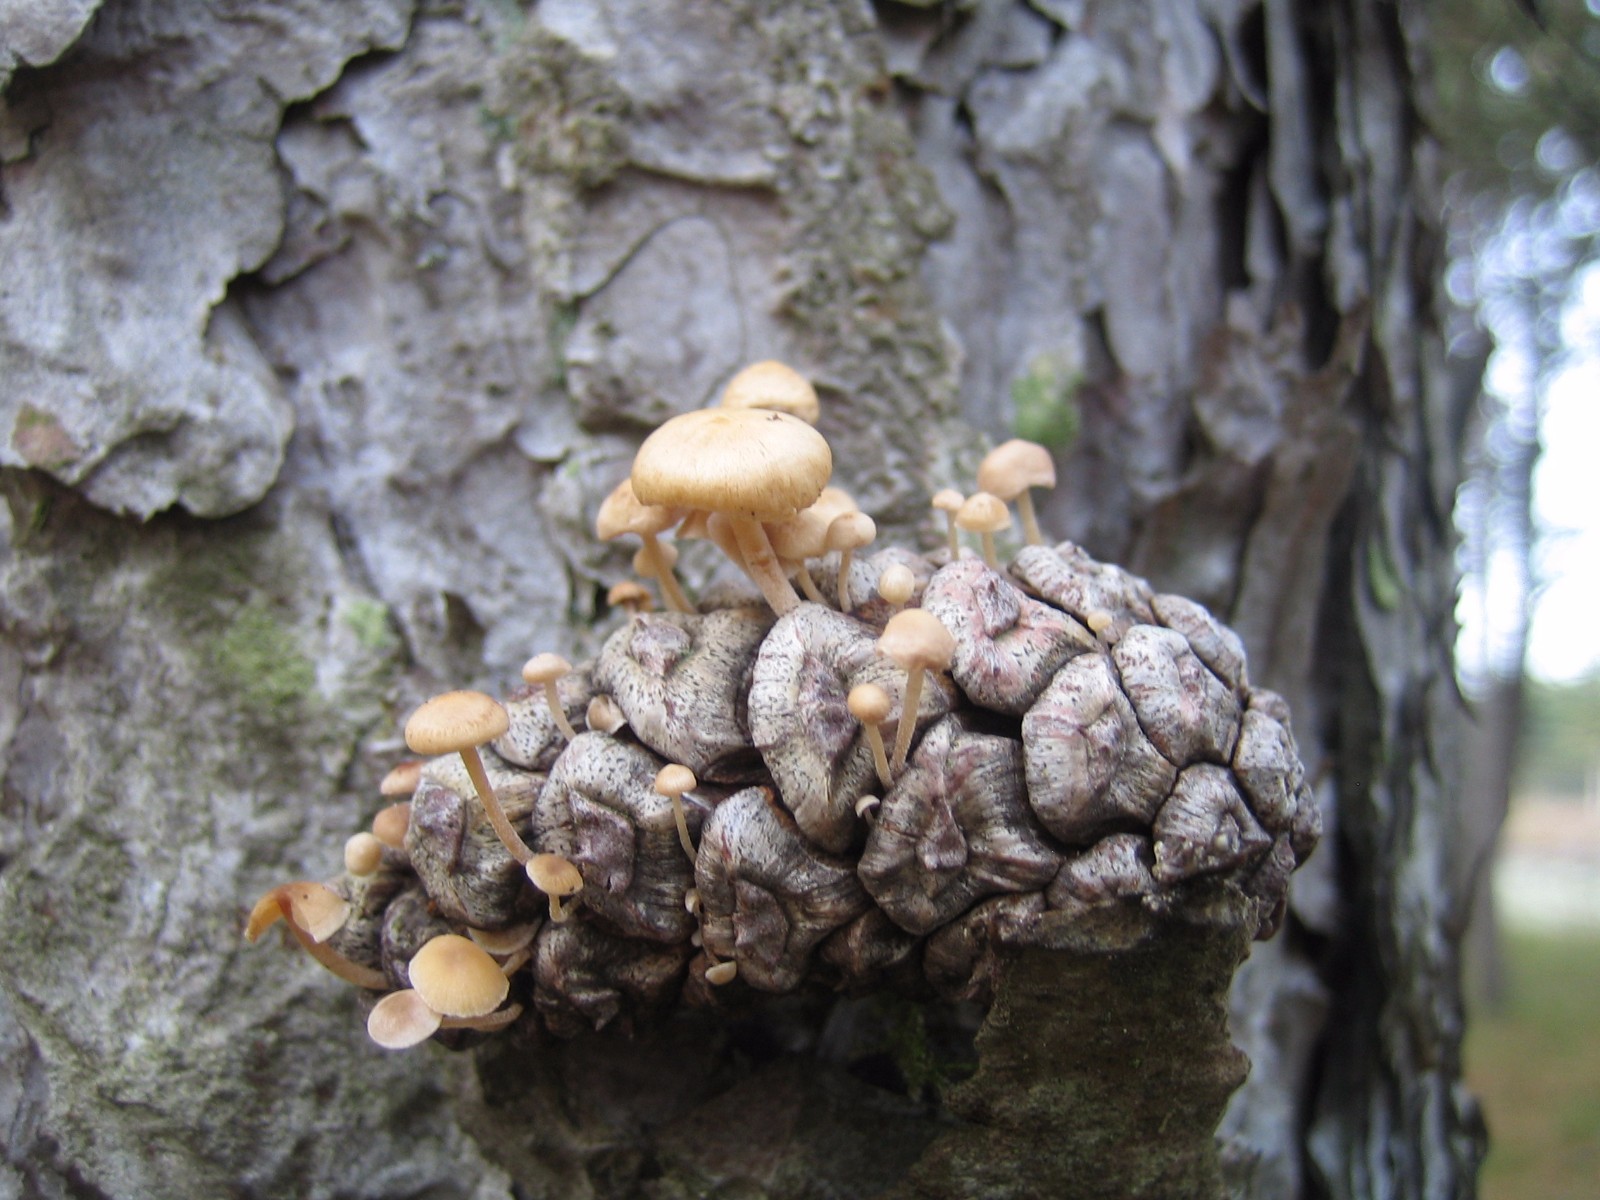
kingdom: Fungi
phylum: Basidiomycota
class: Agaricomycetes
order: Agaricales
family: Marasmiaceae
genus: Baeospora
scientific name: Baeospora myosura
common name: koglebruskhat
